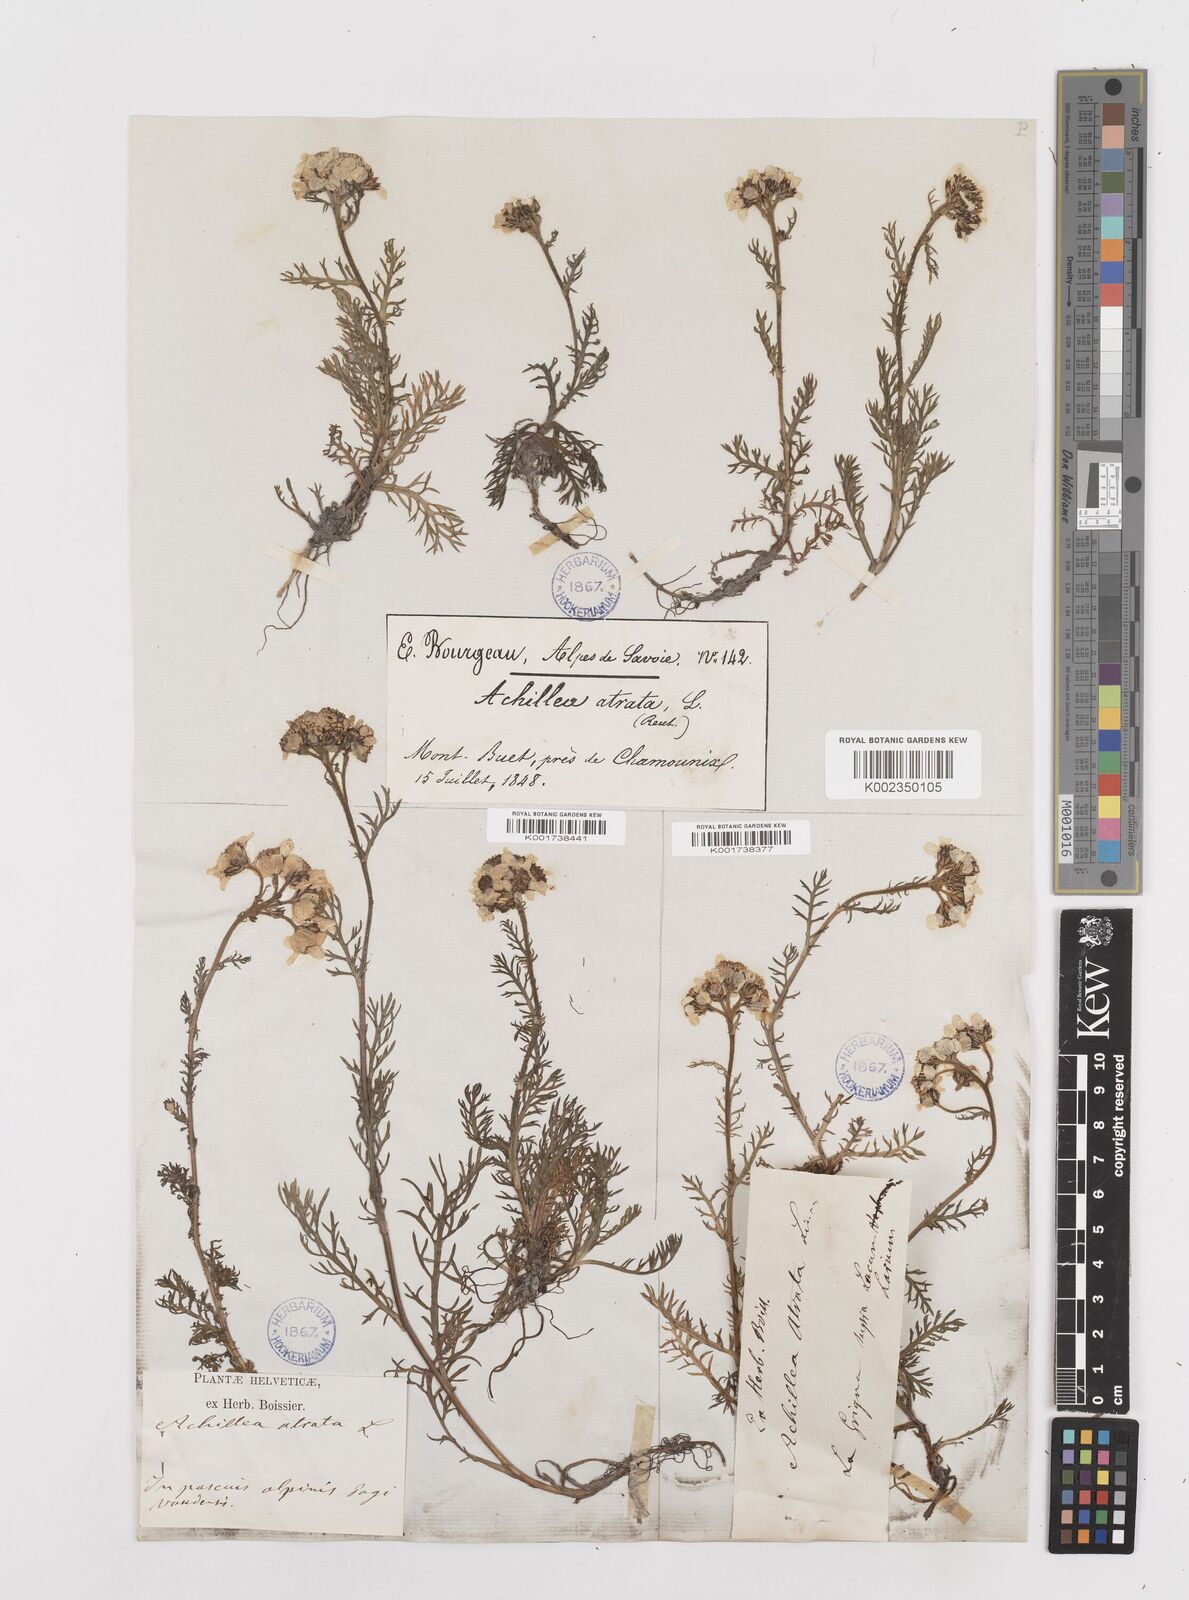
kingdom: Plantae
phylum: Tracheophyta
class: Magnoliopsida
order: Asterales
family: Asteraceae
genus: Achillea
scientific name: Achillea atrata
